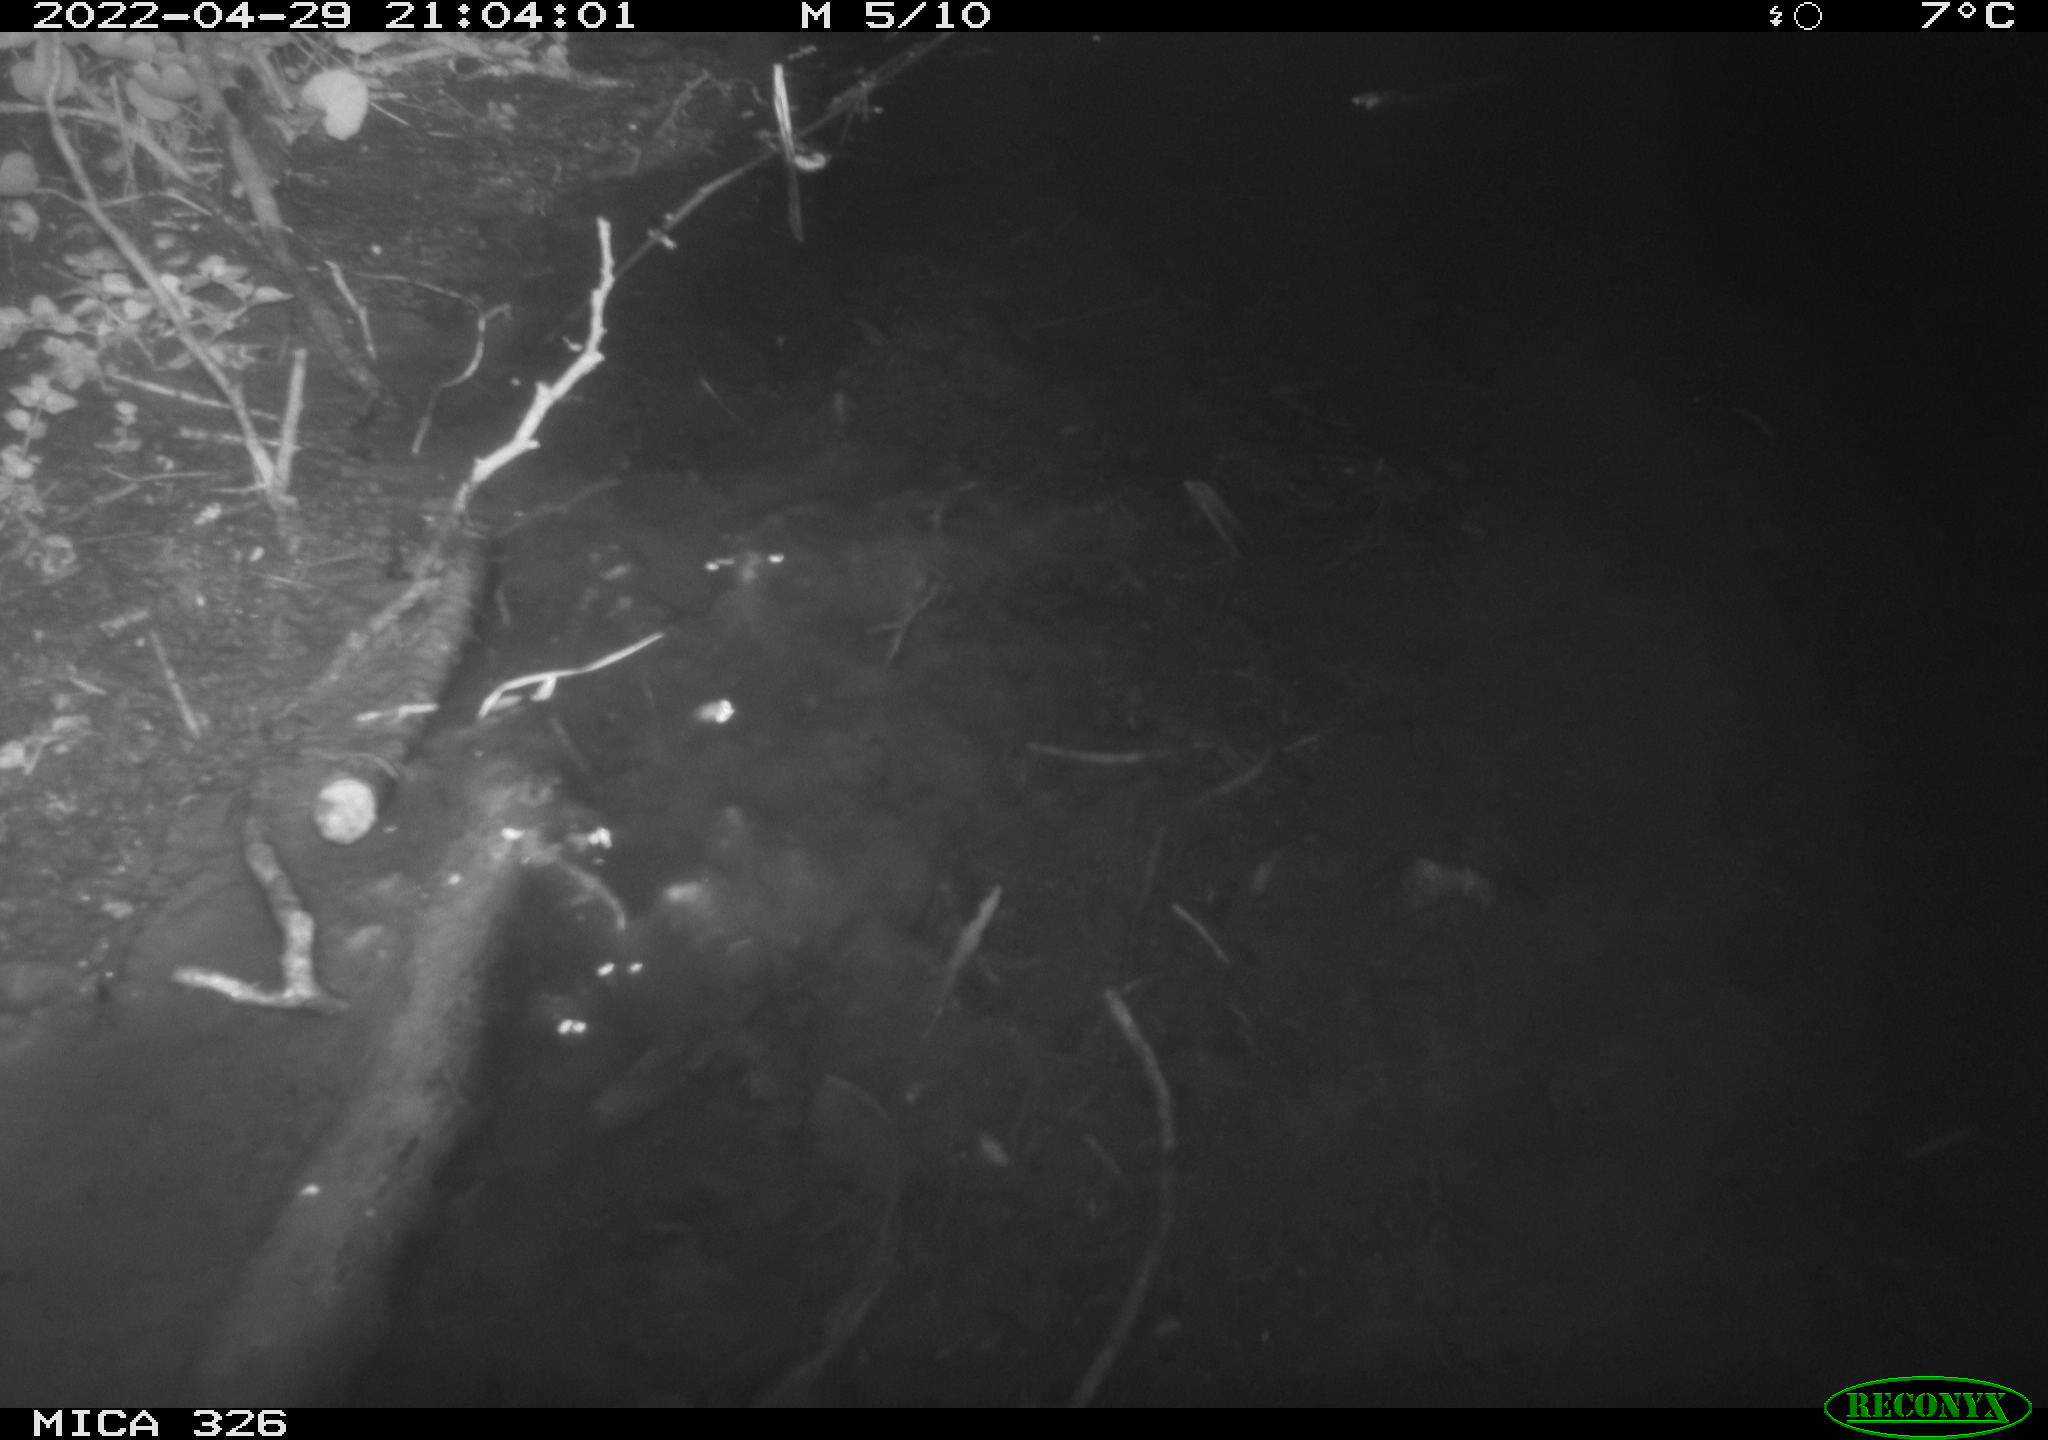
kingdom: Animalia
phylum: Chordata
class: Mammalia
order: Rodentia
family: Muridae
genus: Rattus
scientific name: Rattus norvegicus
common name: Brown rat
